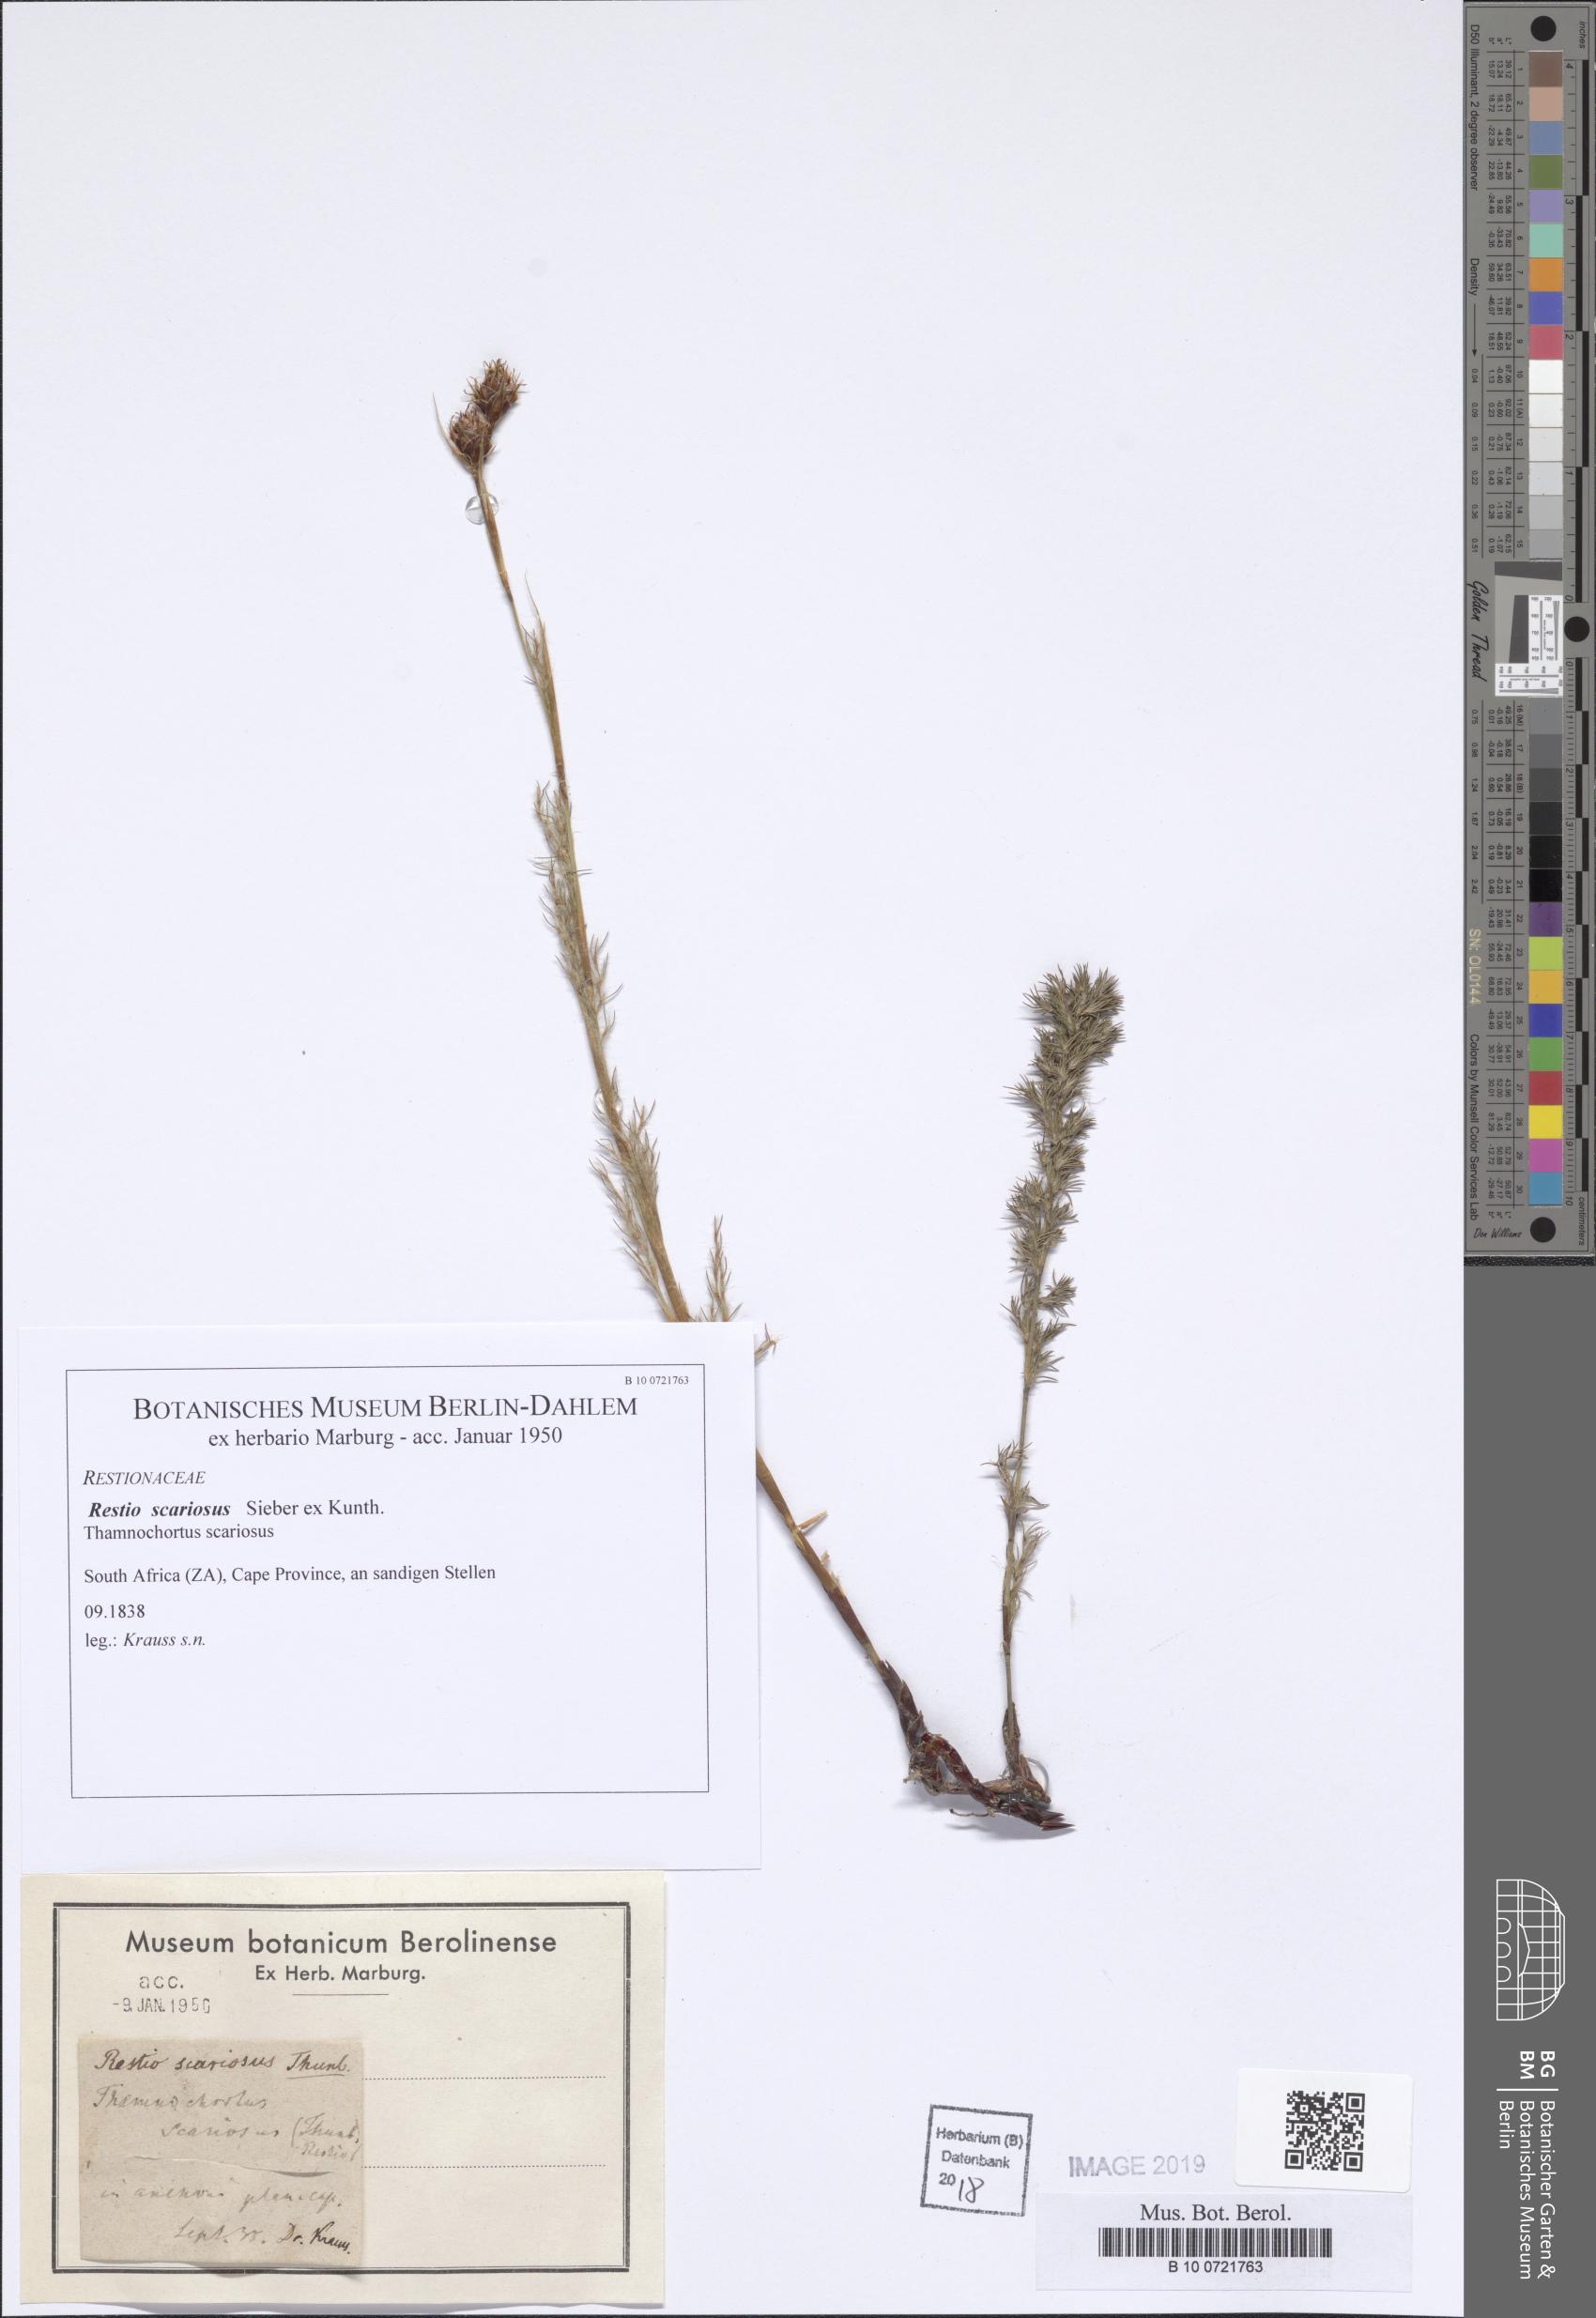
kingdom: Plantae
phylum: Tracheophyta
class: Liliopsida
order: Poales
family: Restionaceae
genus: Thamnochortus
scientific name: Thamnochortus lucens
